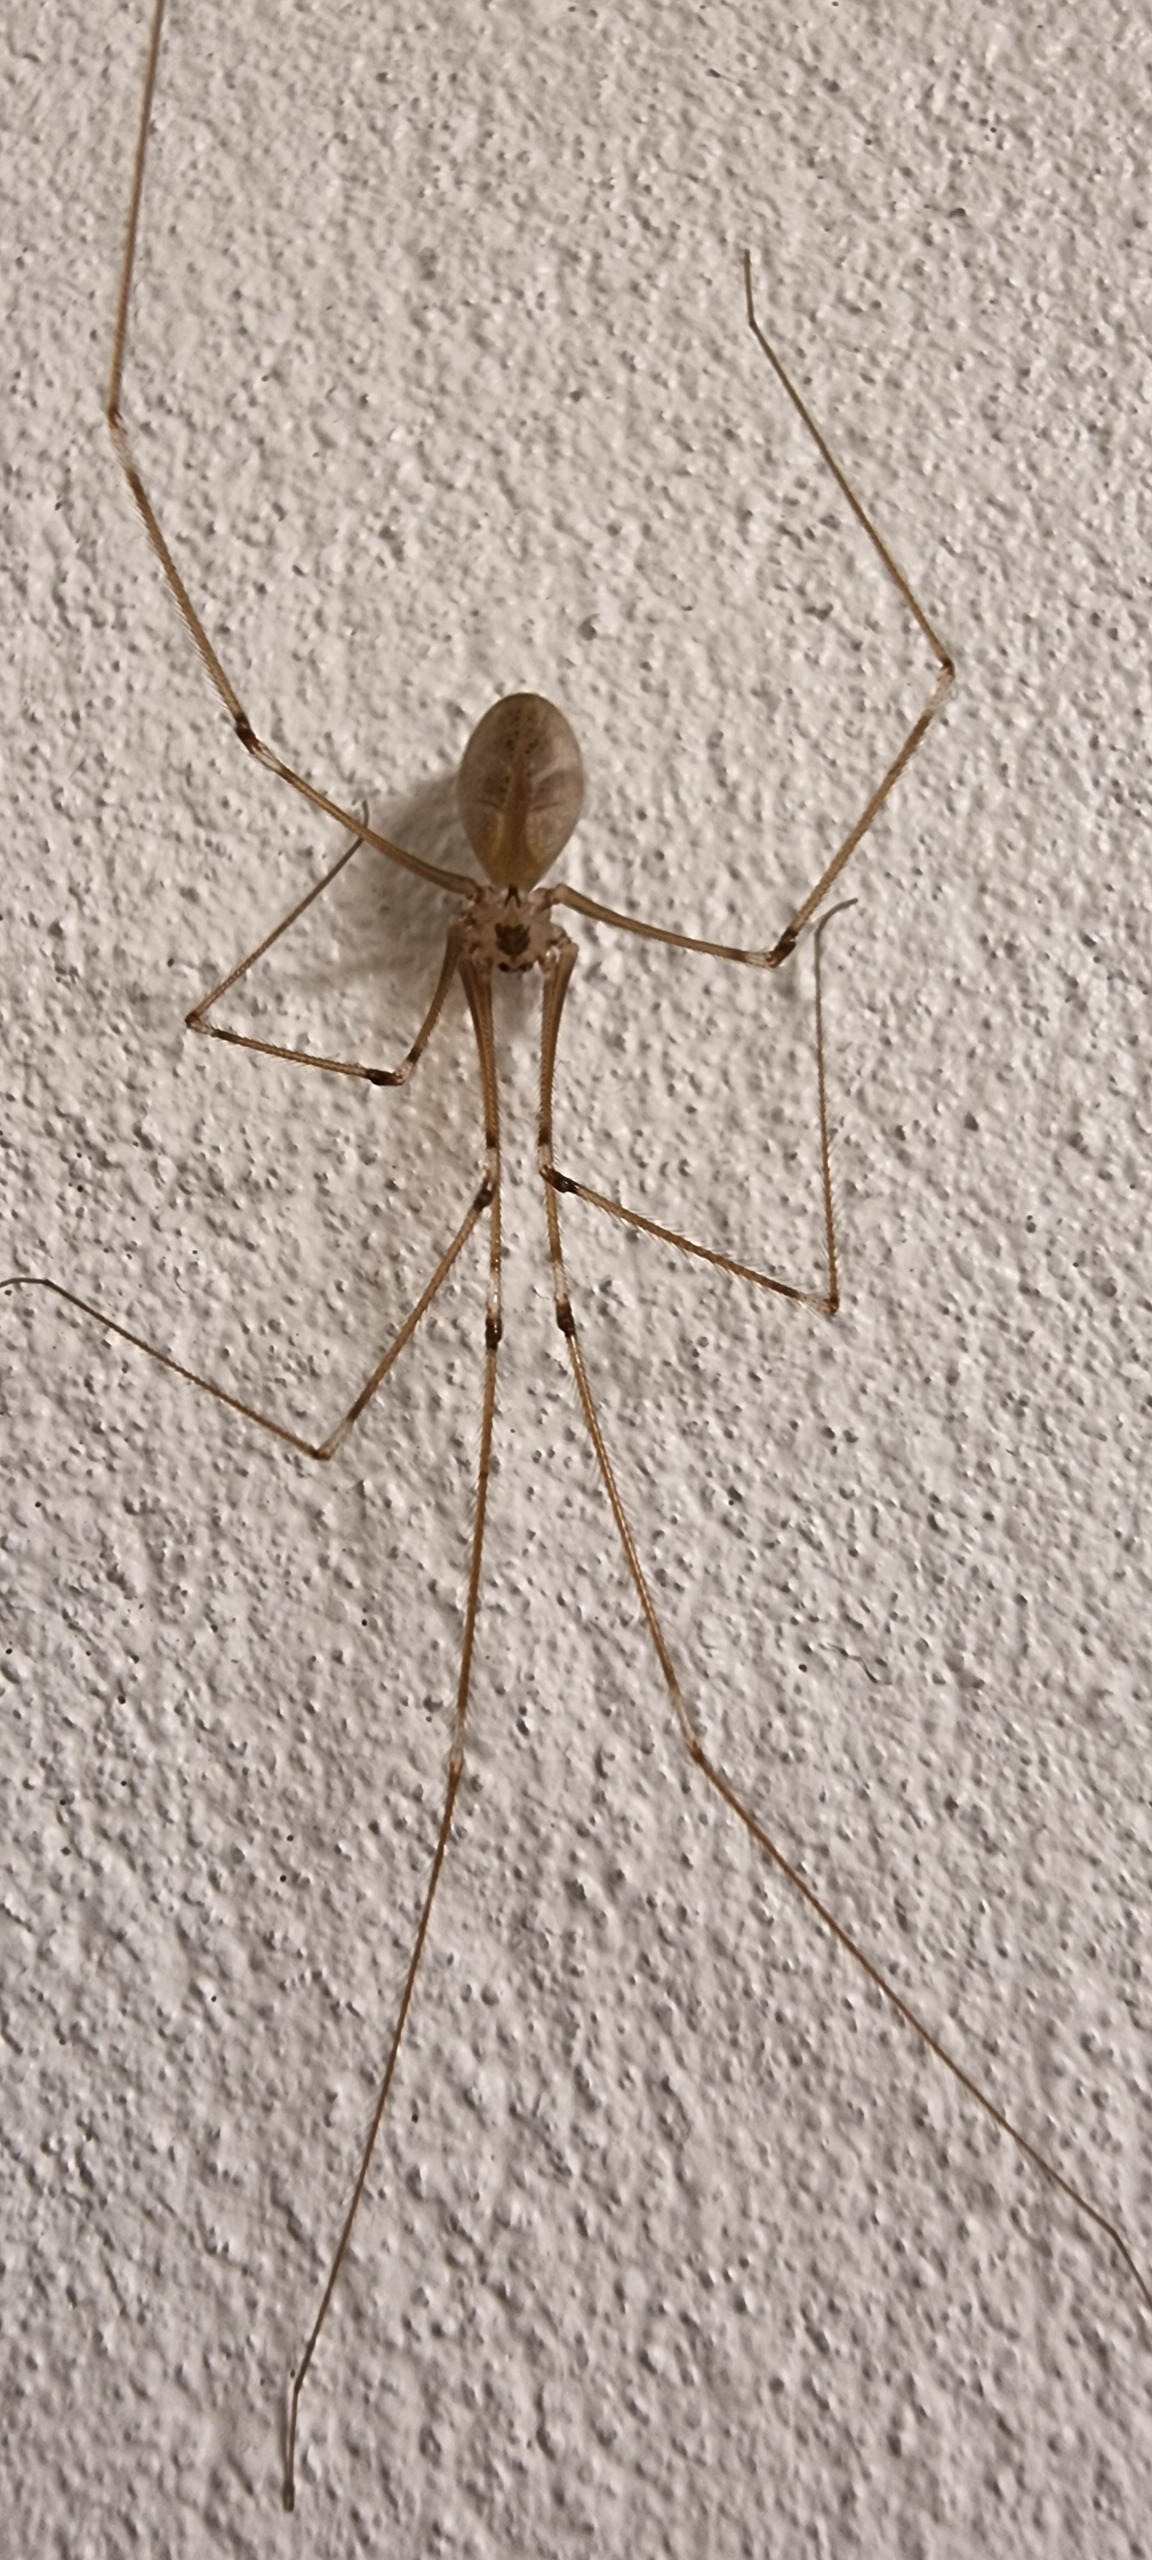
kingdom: Animalia
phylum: Arthropoda
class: Arachnida
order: Araneae
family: Pholcidae
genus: Pholcus
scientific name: Pholcus phalangioides
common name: Mejeredderkop
